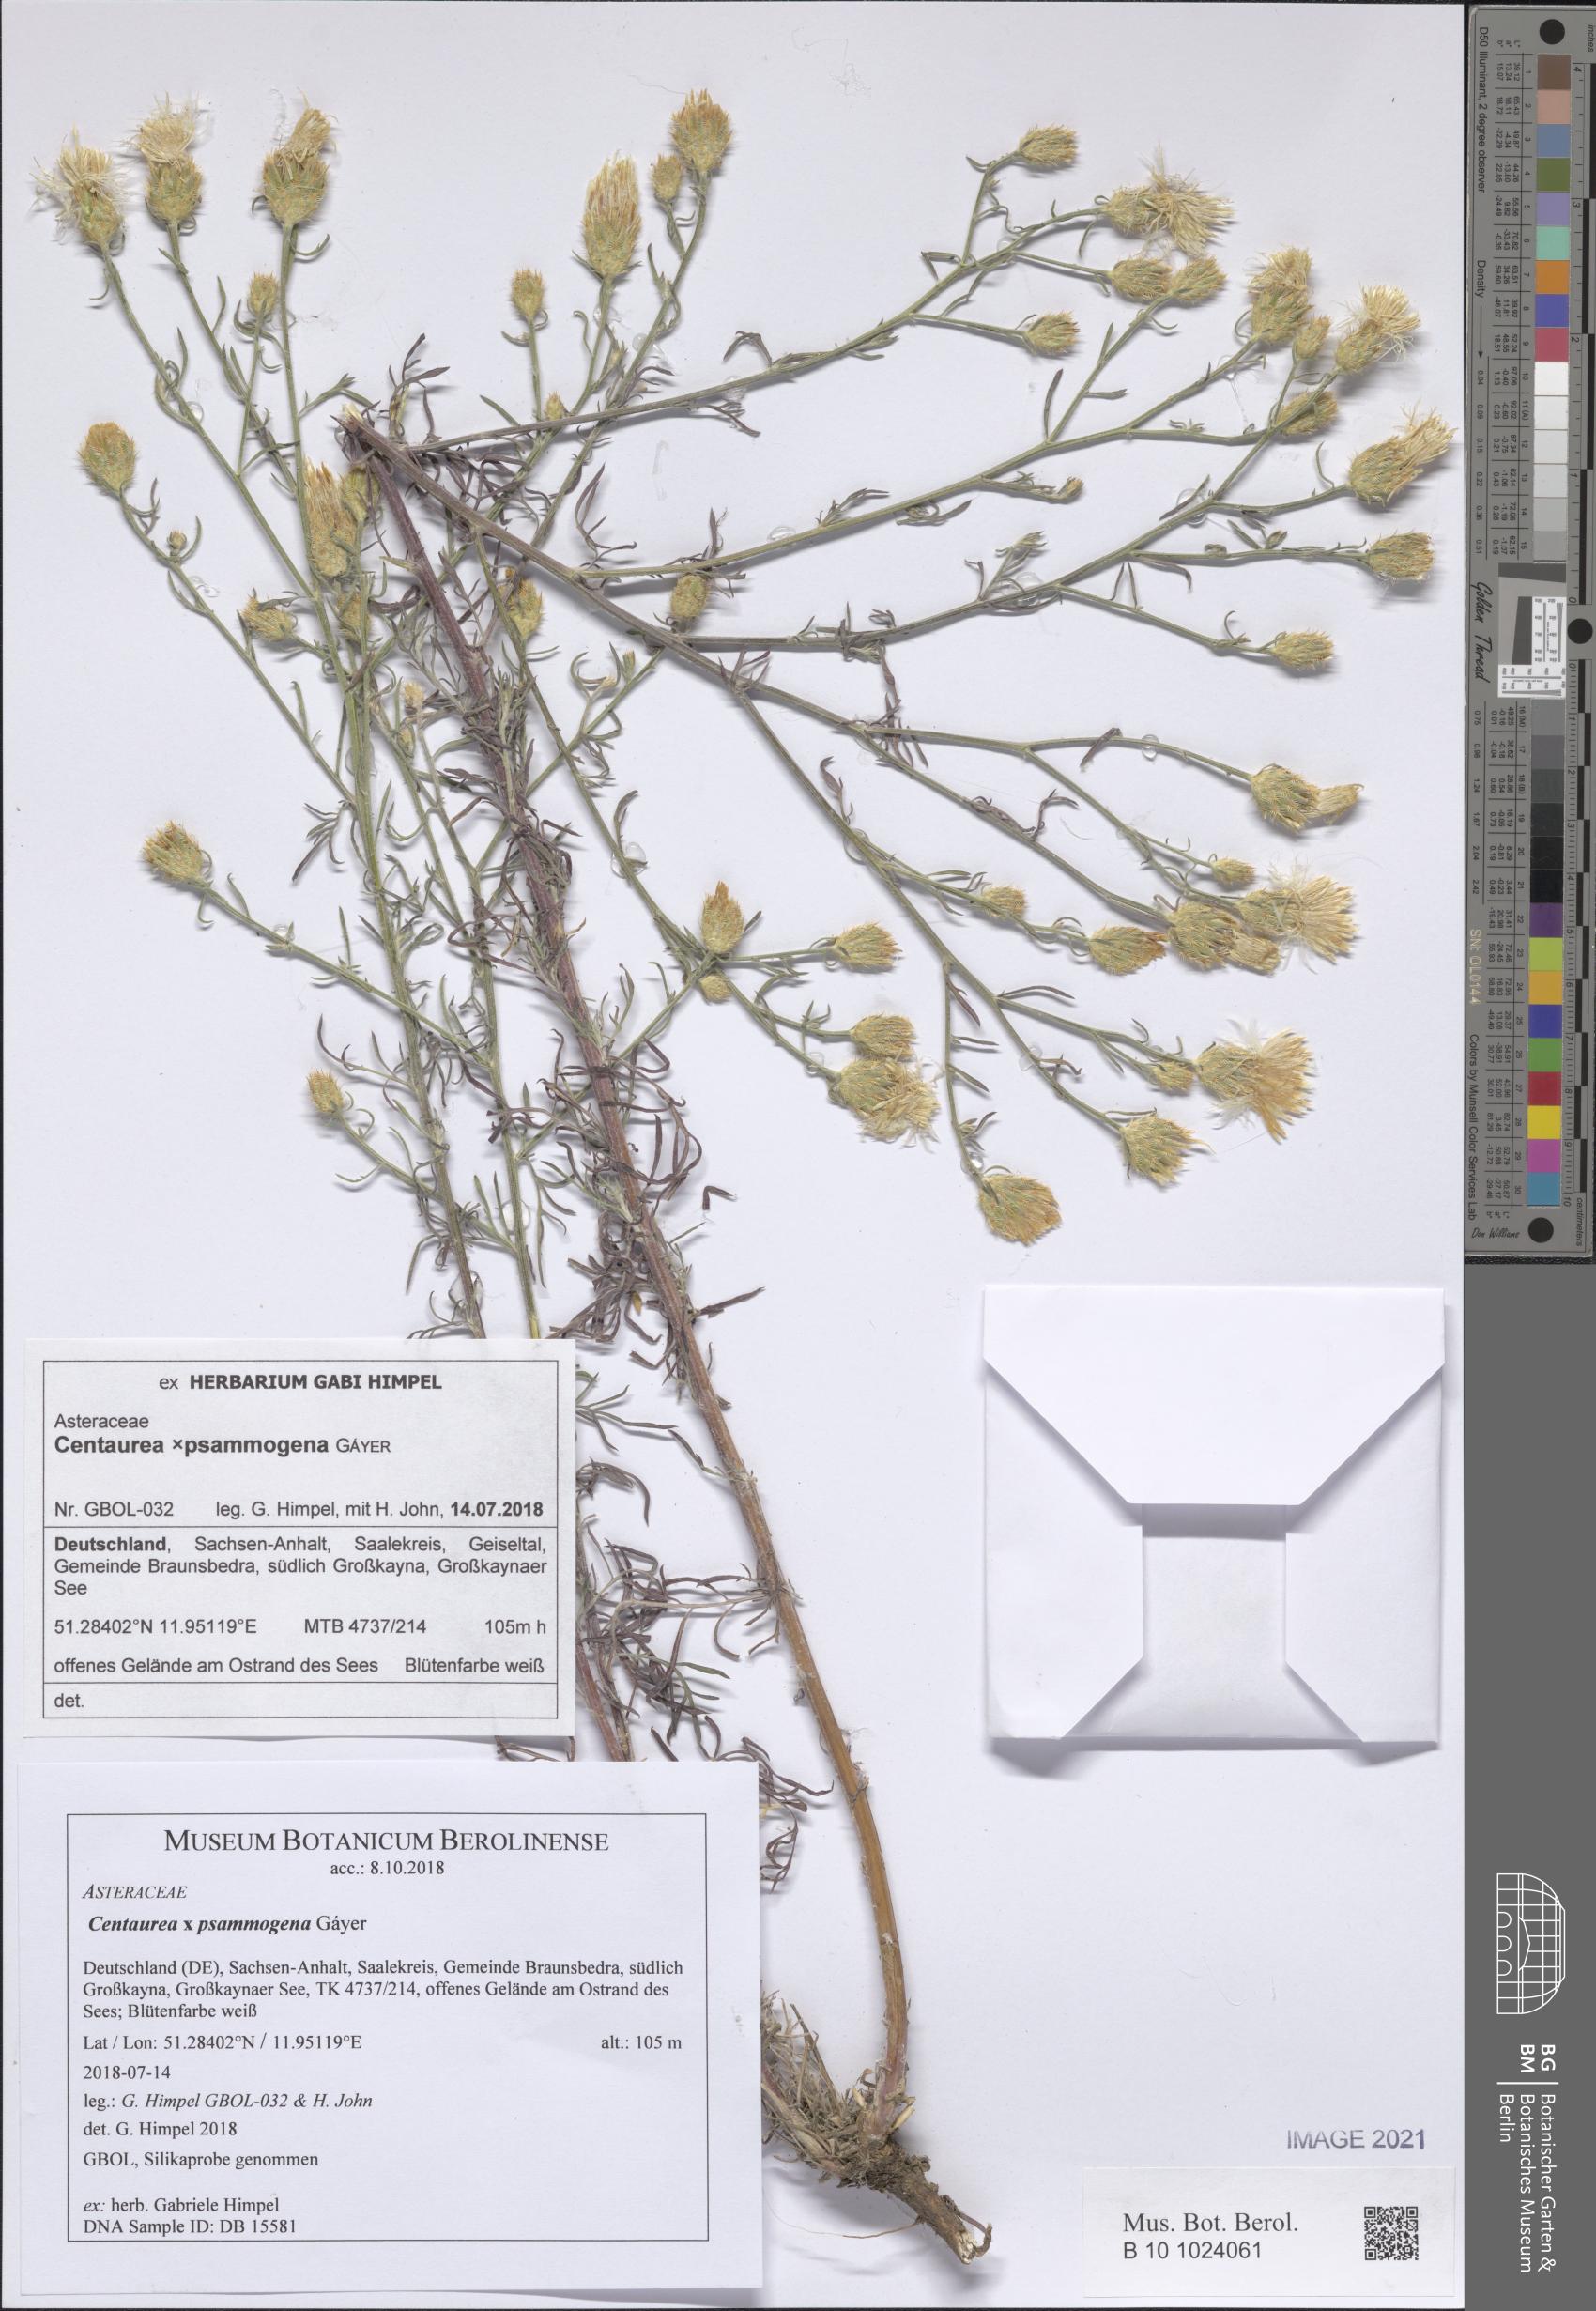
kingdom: Plantae
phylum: Tracheophyta
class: Magnoliopsida
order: Asterales
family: Asteraceae
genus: Centaurea
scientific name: Centaurea psammogena
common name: Diffuse-spotted knapweed hybrid
